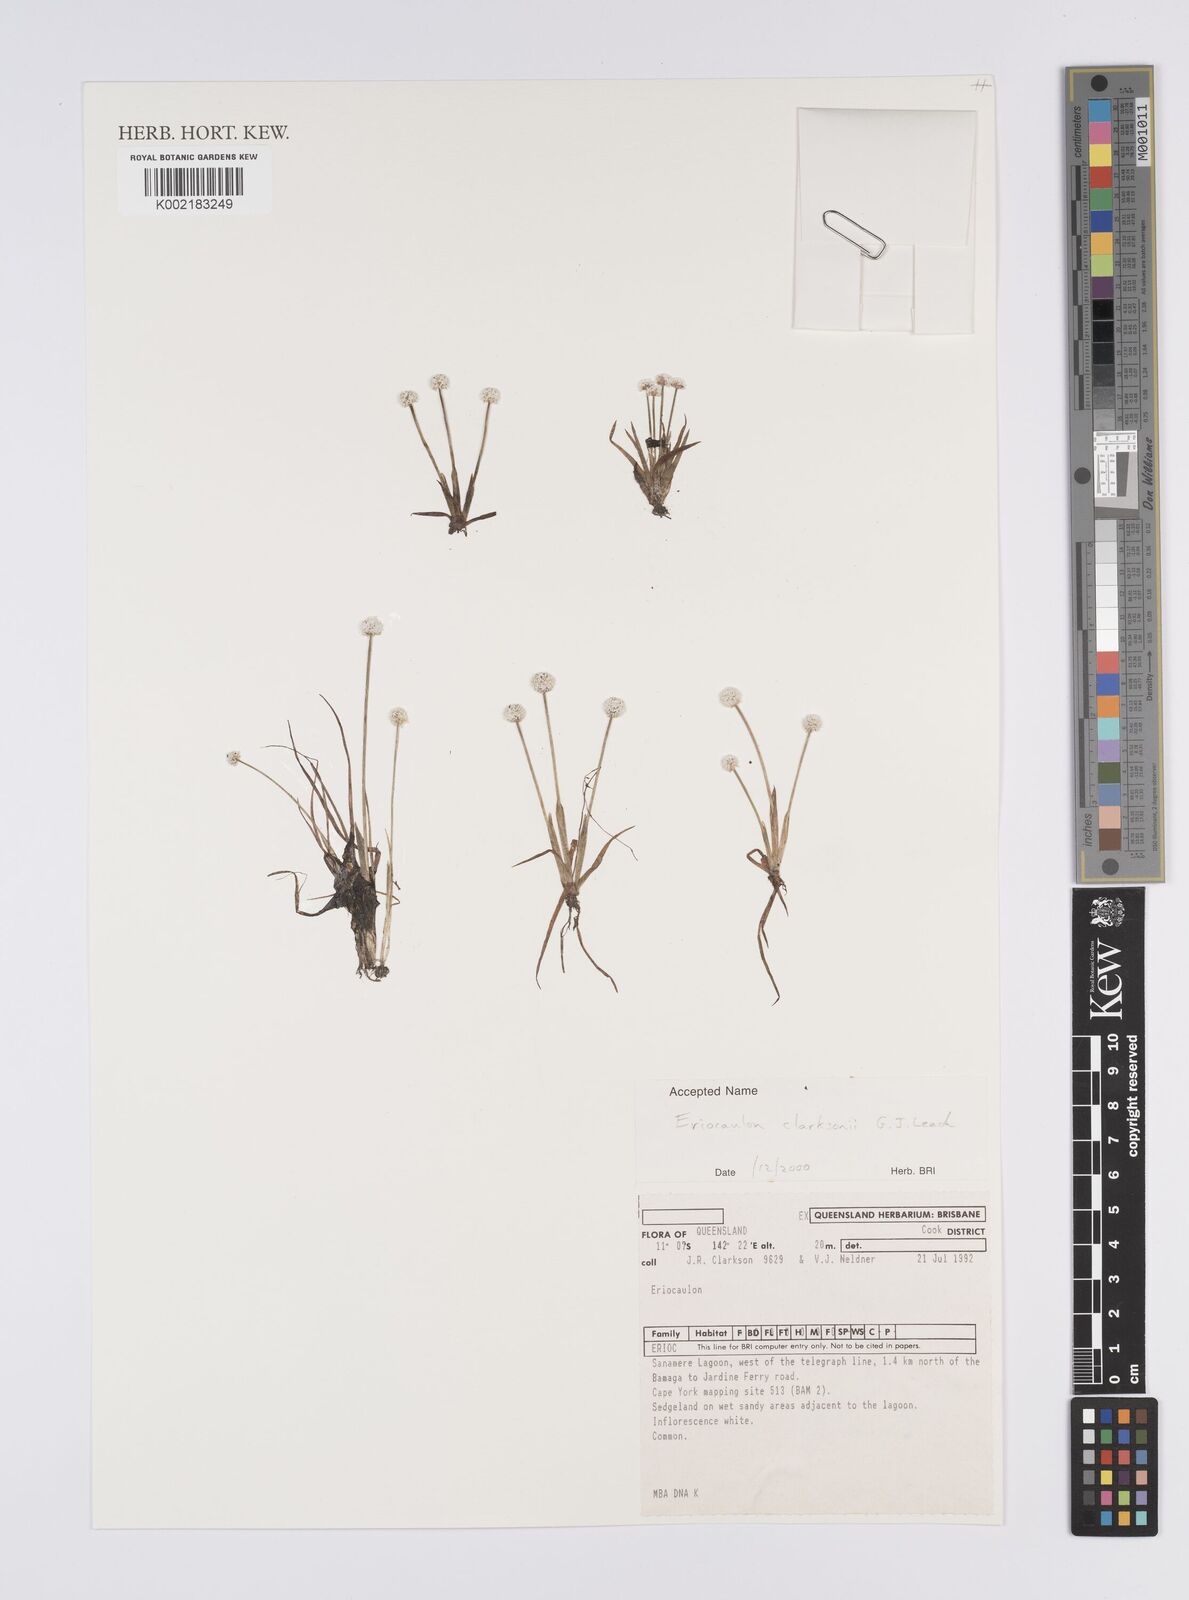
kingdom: Plantae
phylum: Tracheophyta
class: Liliopsida
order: Poales
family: Eriocaulaceae
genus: Eriocaulon
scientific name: Eriocaulon clarksonii
